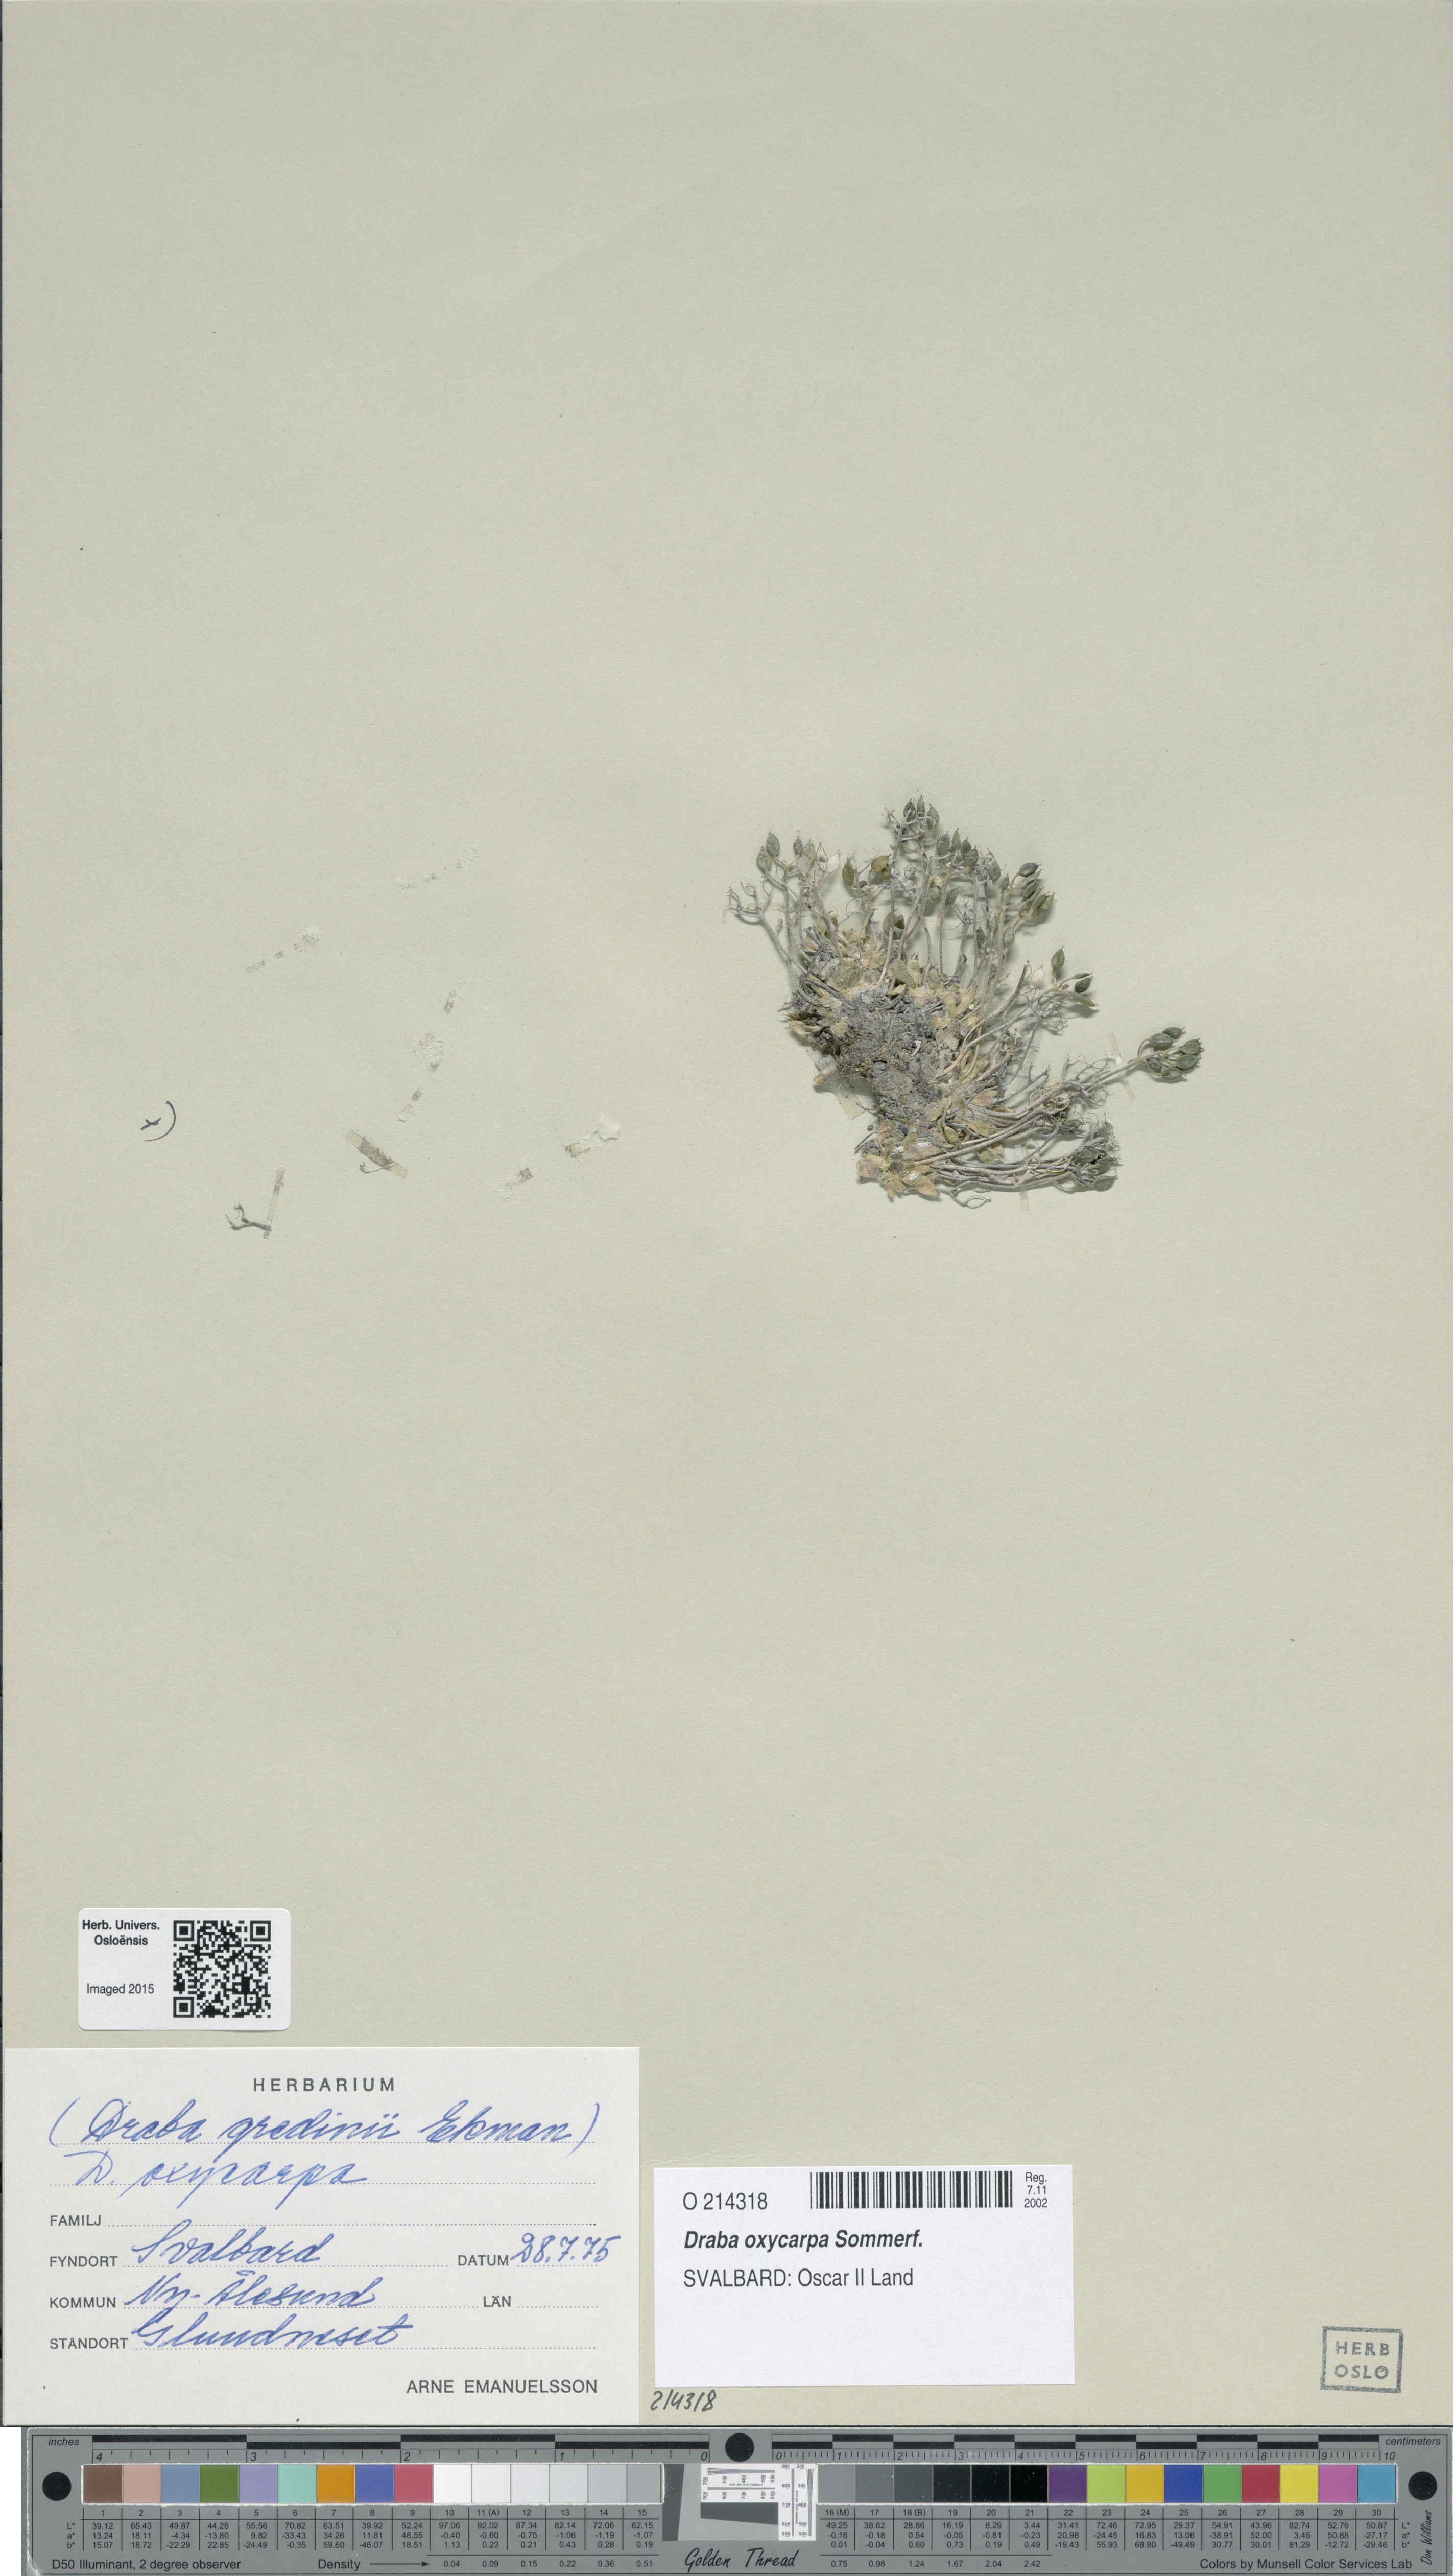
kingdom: Plantae
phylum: Tracheophyta
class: Magnoliopsida
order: Brassicales
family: Brassicaceae
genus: Draba
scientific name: Draba oxycarpa
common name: Sharp-fruited whitlow-grass
